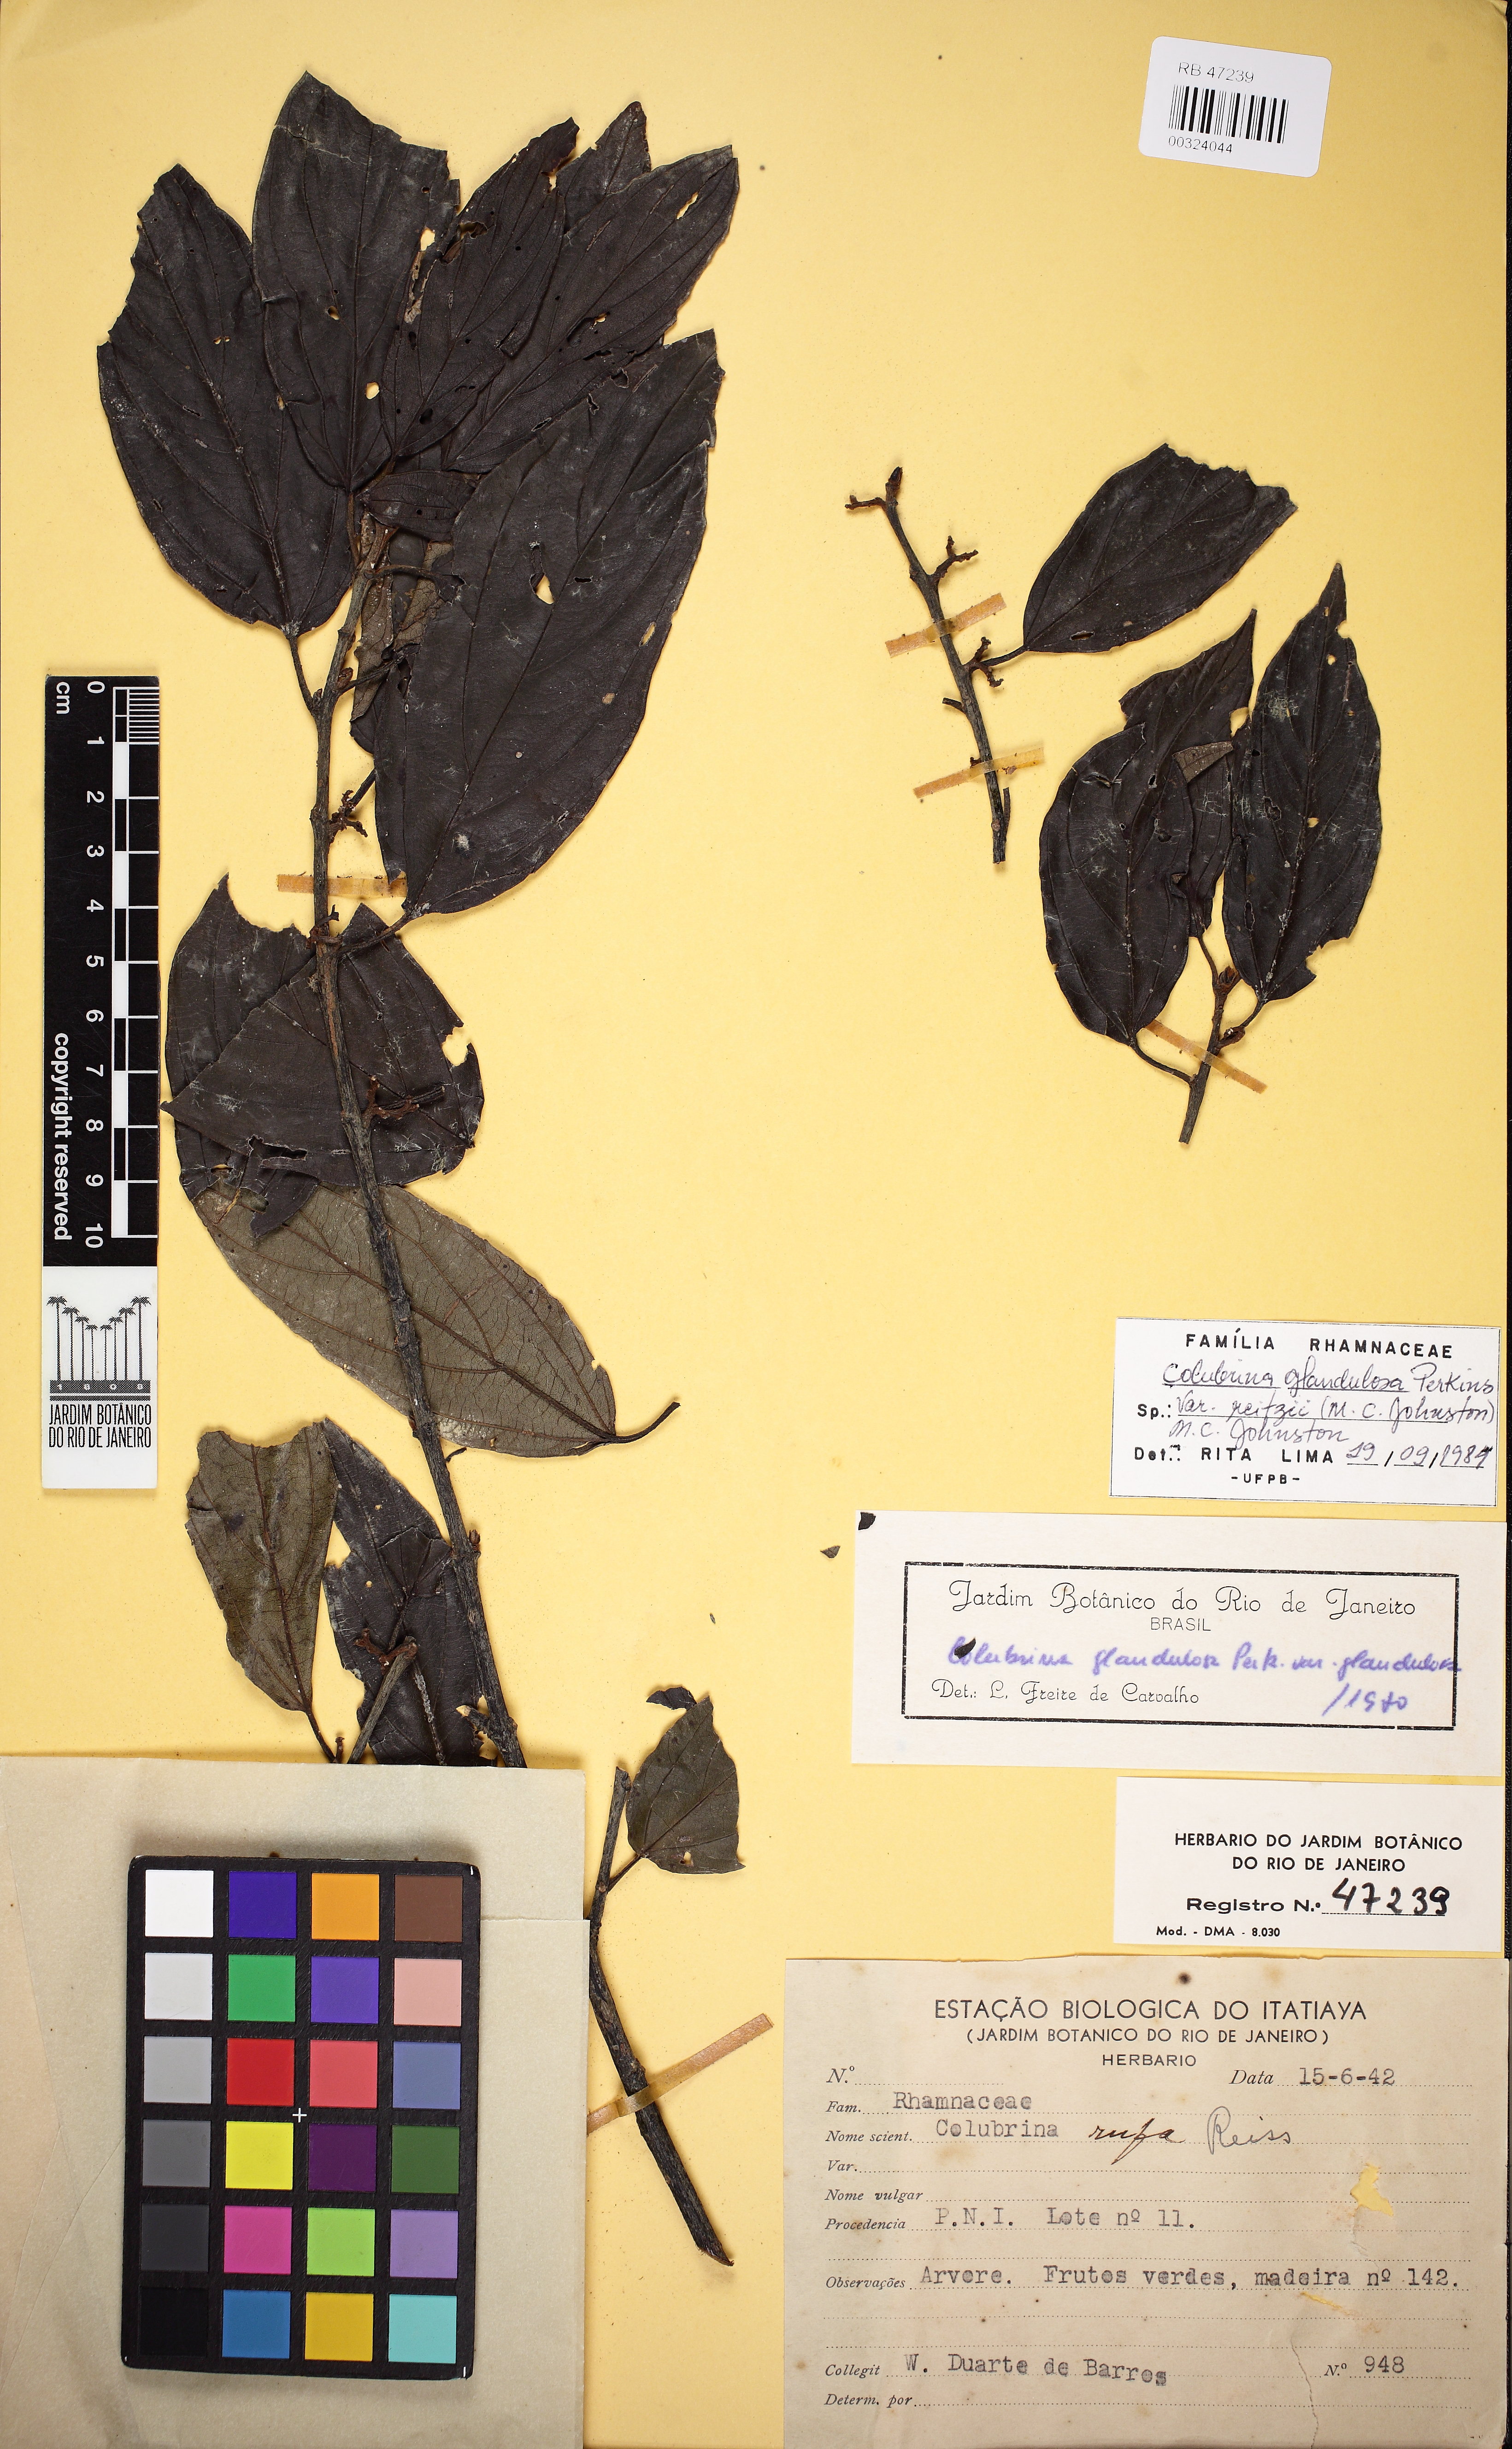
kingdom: Plantae
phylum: Tracheophyta
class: Magnoliopsida
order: Rosales
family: Rhamnaceae
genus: Colubrina
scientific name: Colubrina glandulosa
